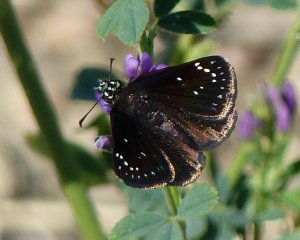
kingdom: Animalia
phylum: Arthropoda
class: Insecta
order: Lepidoptera
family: Hesperiidae
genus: Pholisora
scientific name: Pholisora catullus
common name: Common Sootywing
